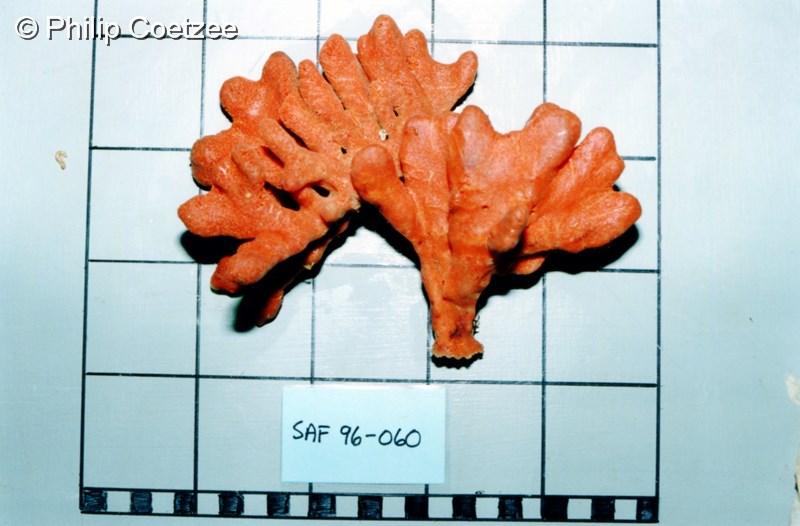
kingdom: Animalia
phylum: Porifera
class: Demospongiae
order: Poecilosclerida
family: Hymedesmiidae
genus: Phorbas
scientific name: Phorbas clathratus
